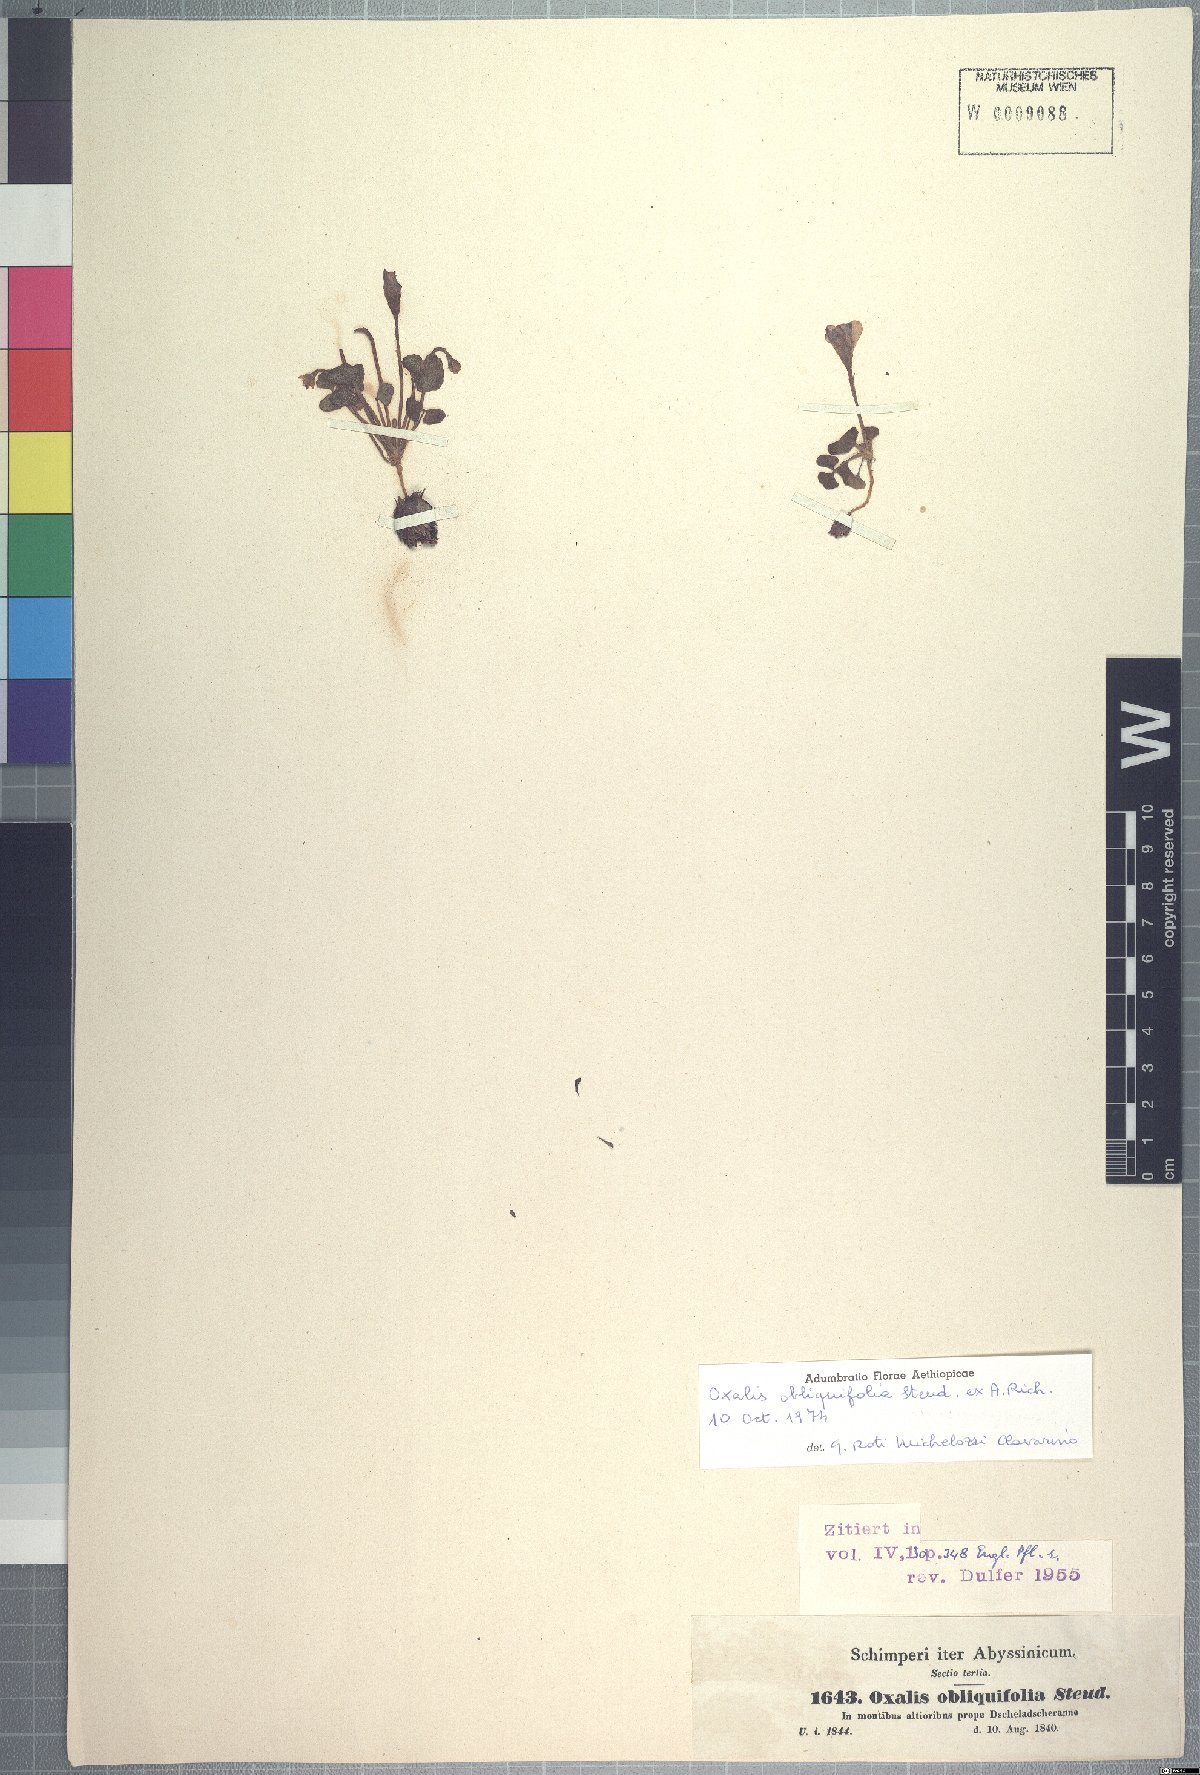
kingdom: Plantae
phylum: Tracheophyta
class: Magnoliopsida
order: Oxalidales
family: Oxalidaceae
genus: Oxalis
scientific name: Oxalis obliquifolia
